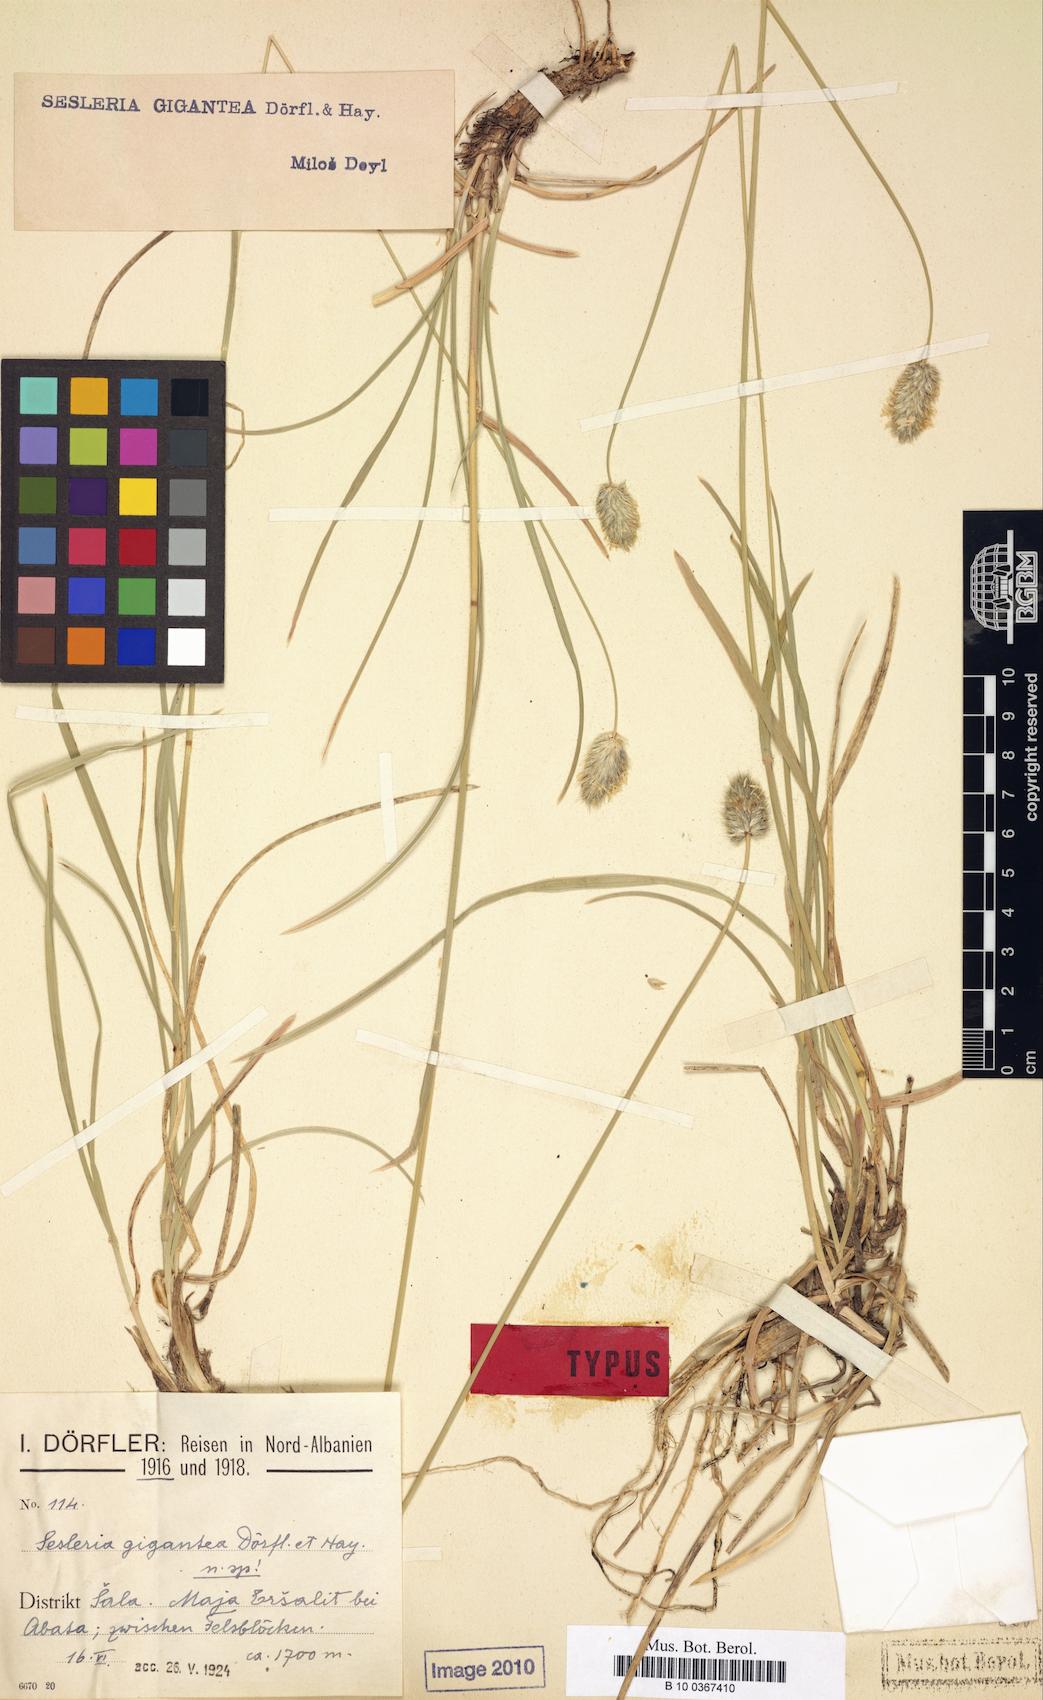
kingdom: Plantae
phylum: Tracheophyta
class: Liliopsida
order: Poales
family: Poaceae
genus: Sesleria
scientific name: Sesleria wettsteinii
